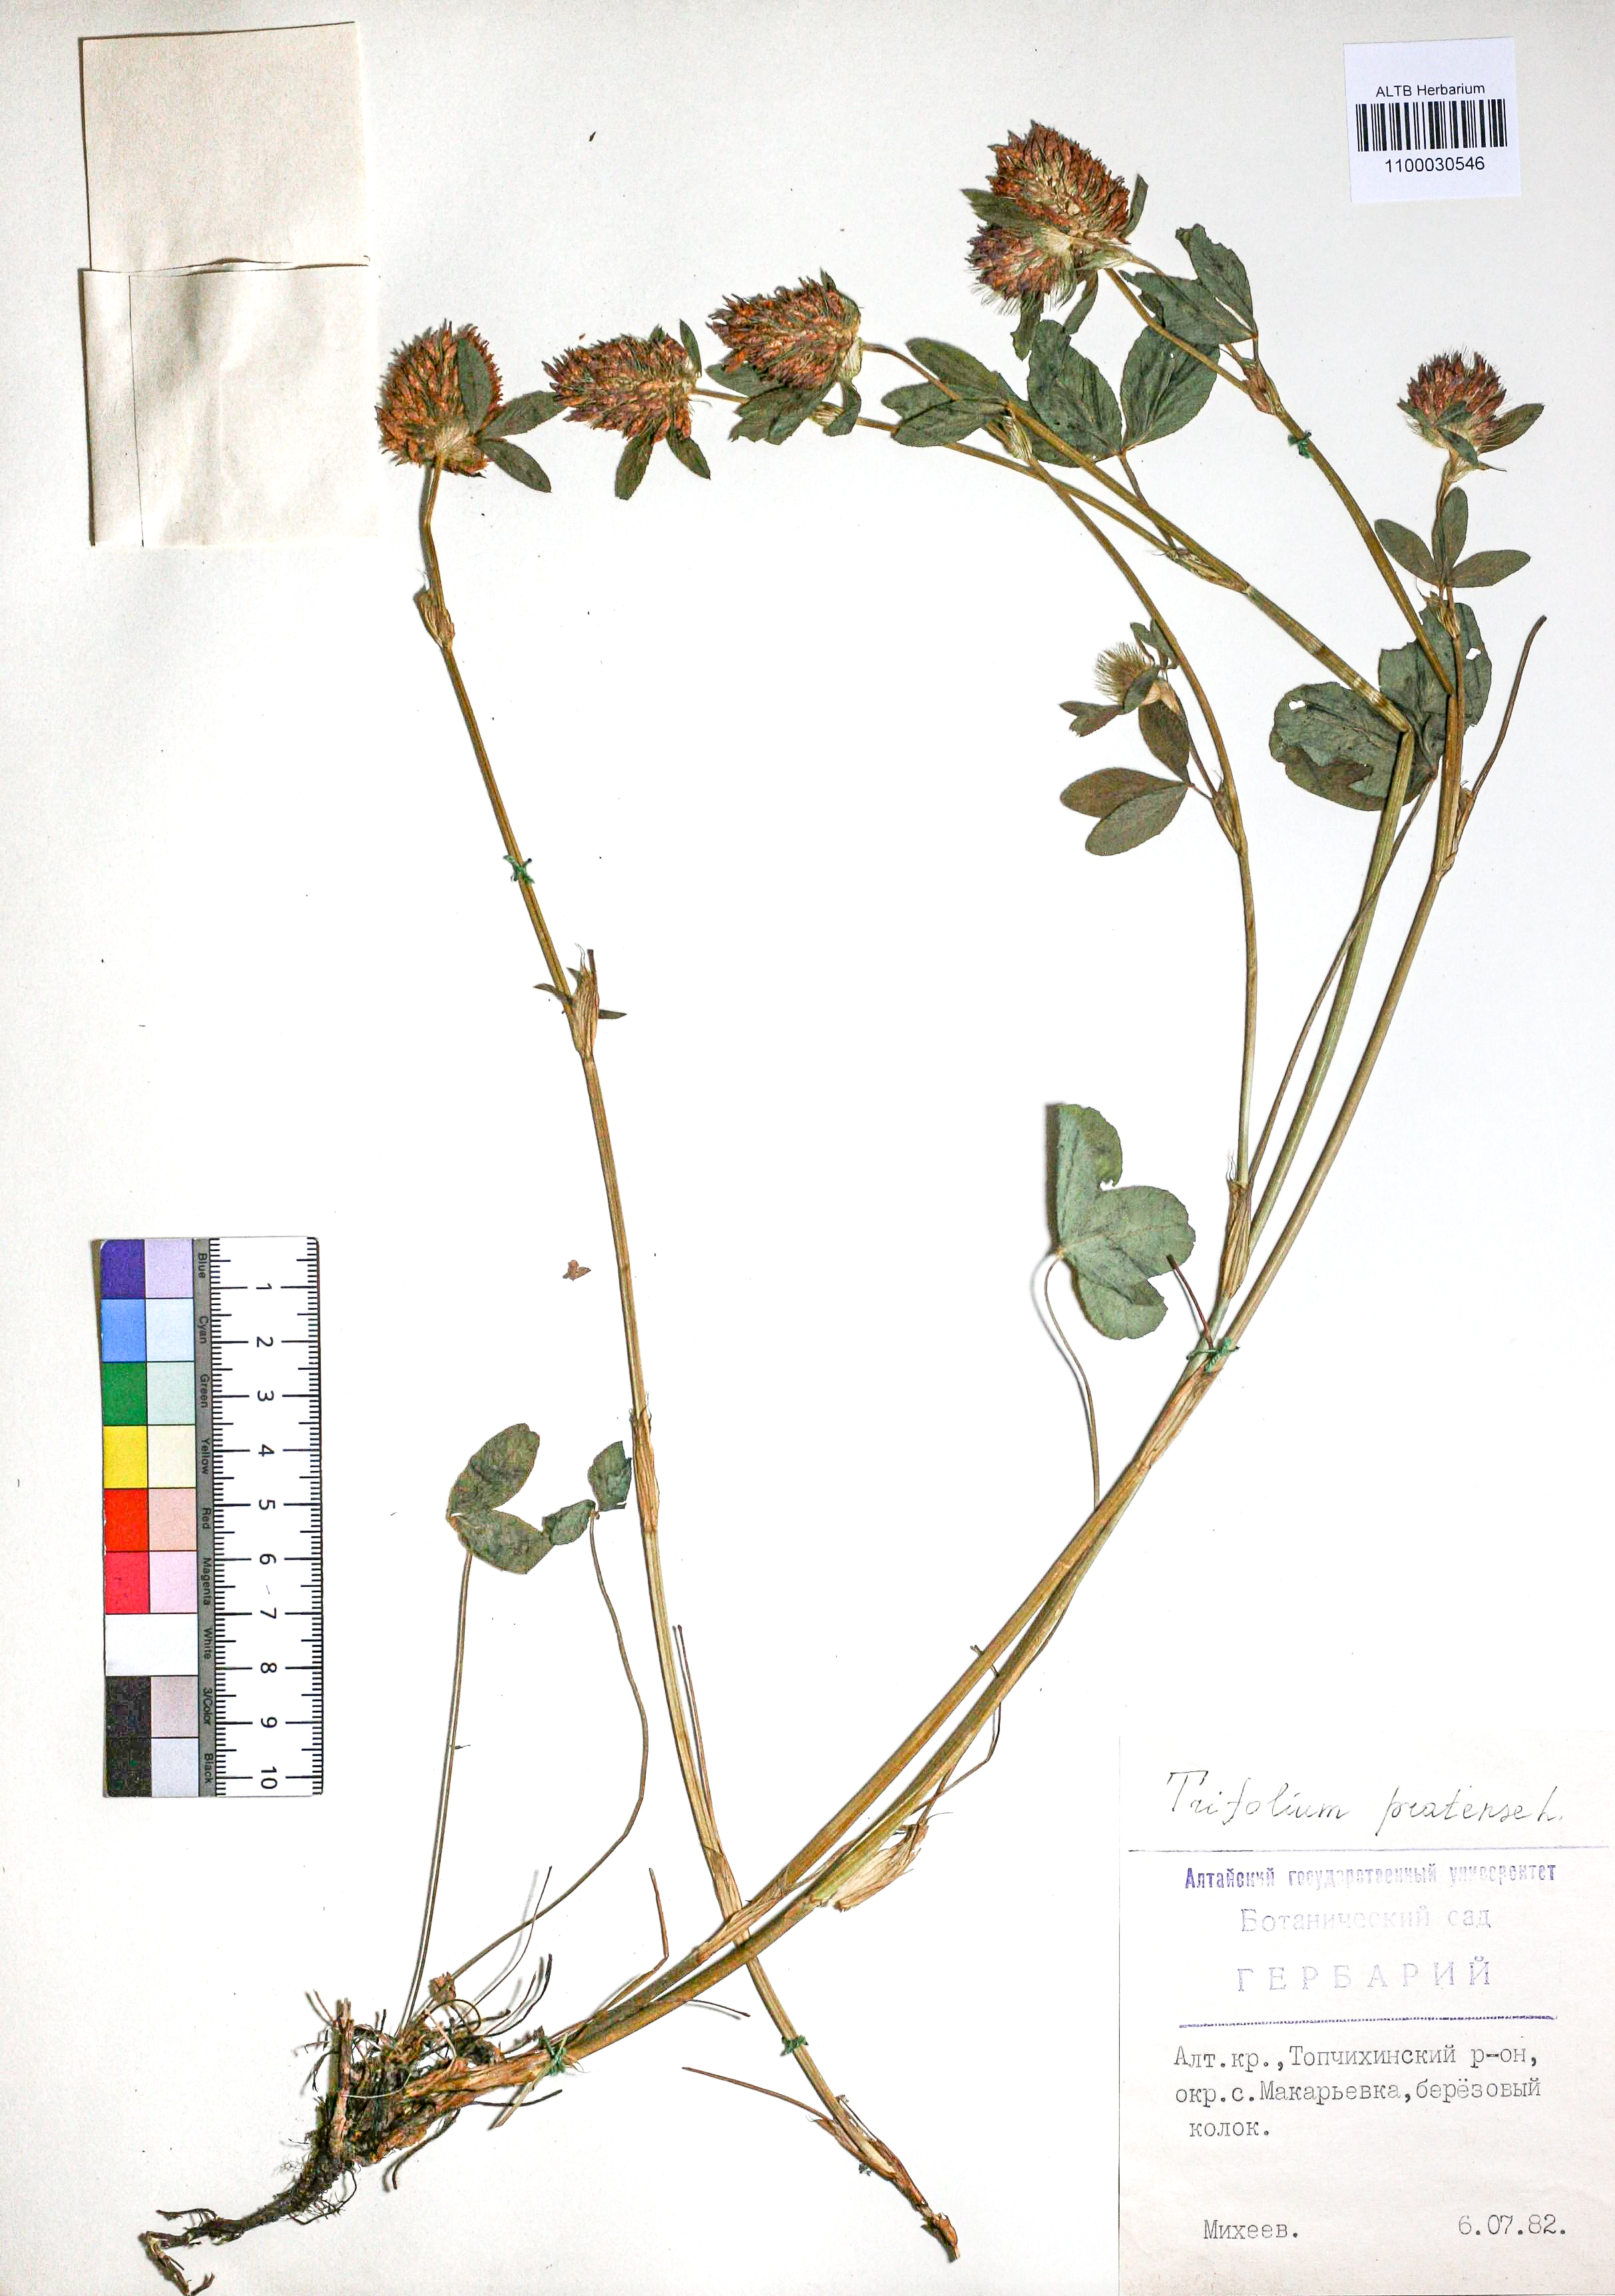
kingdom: Plantae
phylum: Tracheophyta
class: Magnoliopsida
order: Fabales
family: Fabaceae
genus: Trifolium
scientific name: Trifolium pratense
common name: Red clover
